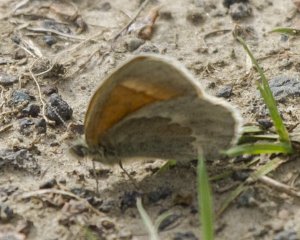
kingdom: Animalia
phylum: Arthropoda
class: Insecta
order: Lepidoptera
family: Nymphalidae
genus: Coenonympha
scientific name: Coenonympha tullia
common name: Large Heath
